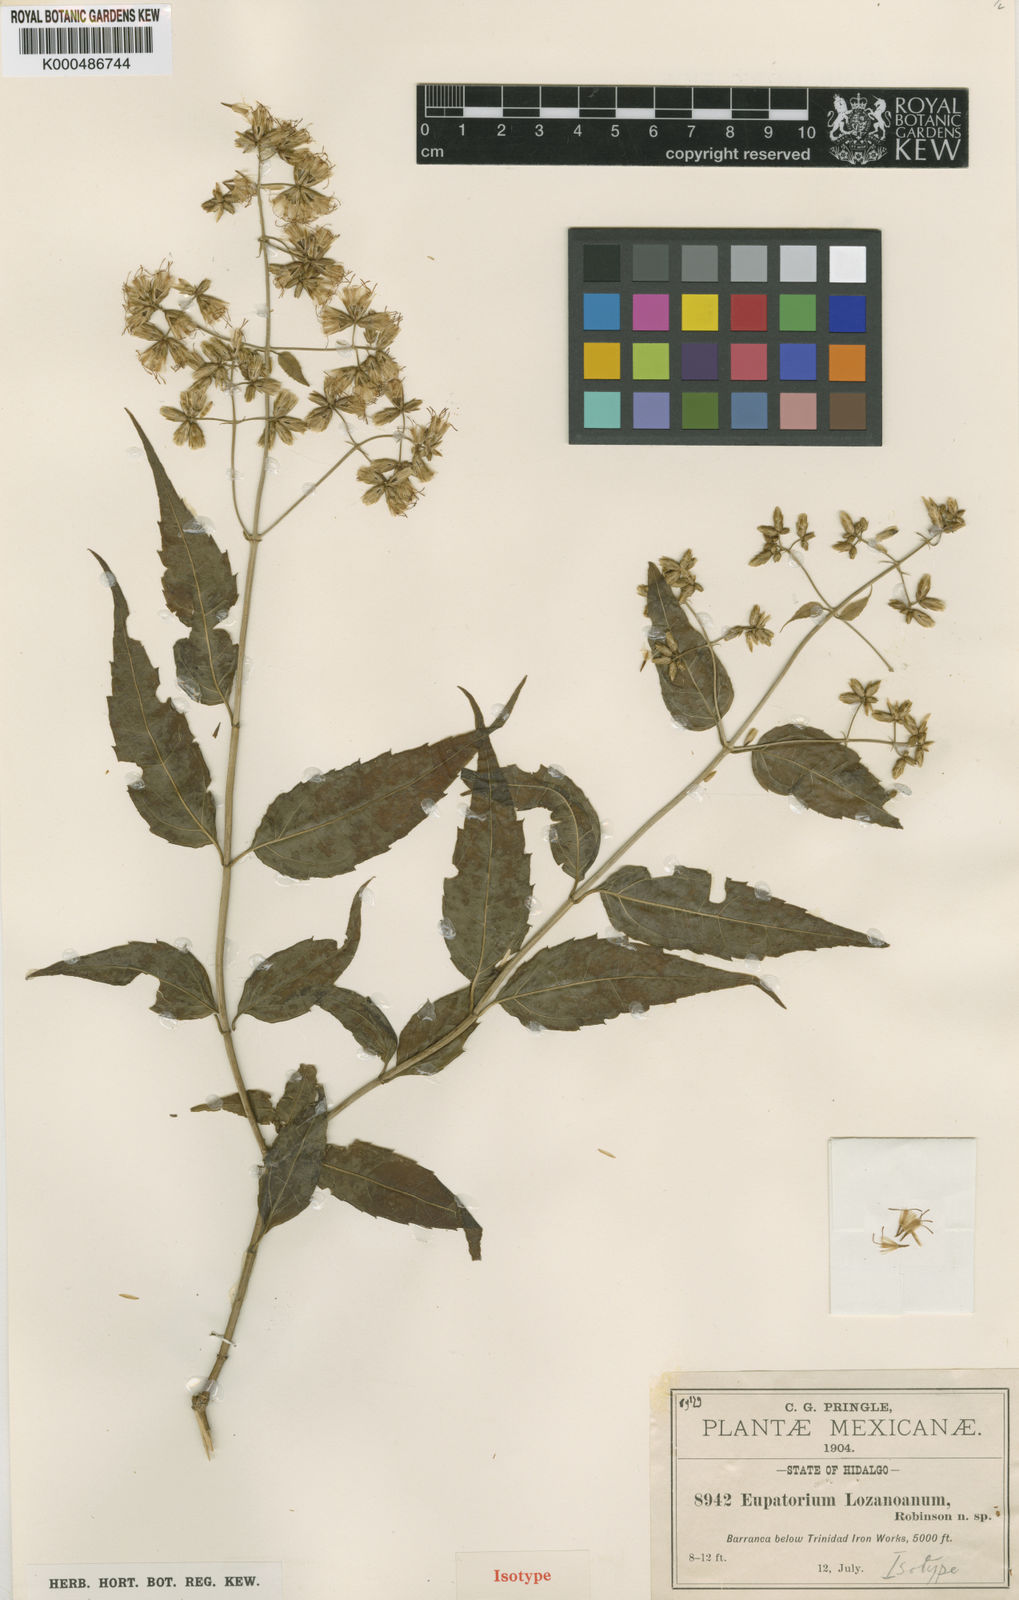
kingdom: Plantae
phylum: Tracheophyta
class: Magnoliopsida
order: Asterales
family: Asteraceae
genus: Critonia
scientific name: Critonia lozanoana
